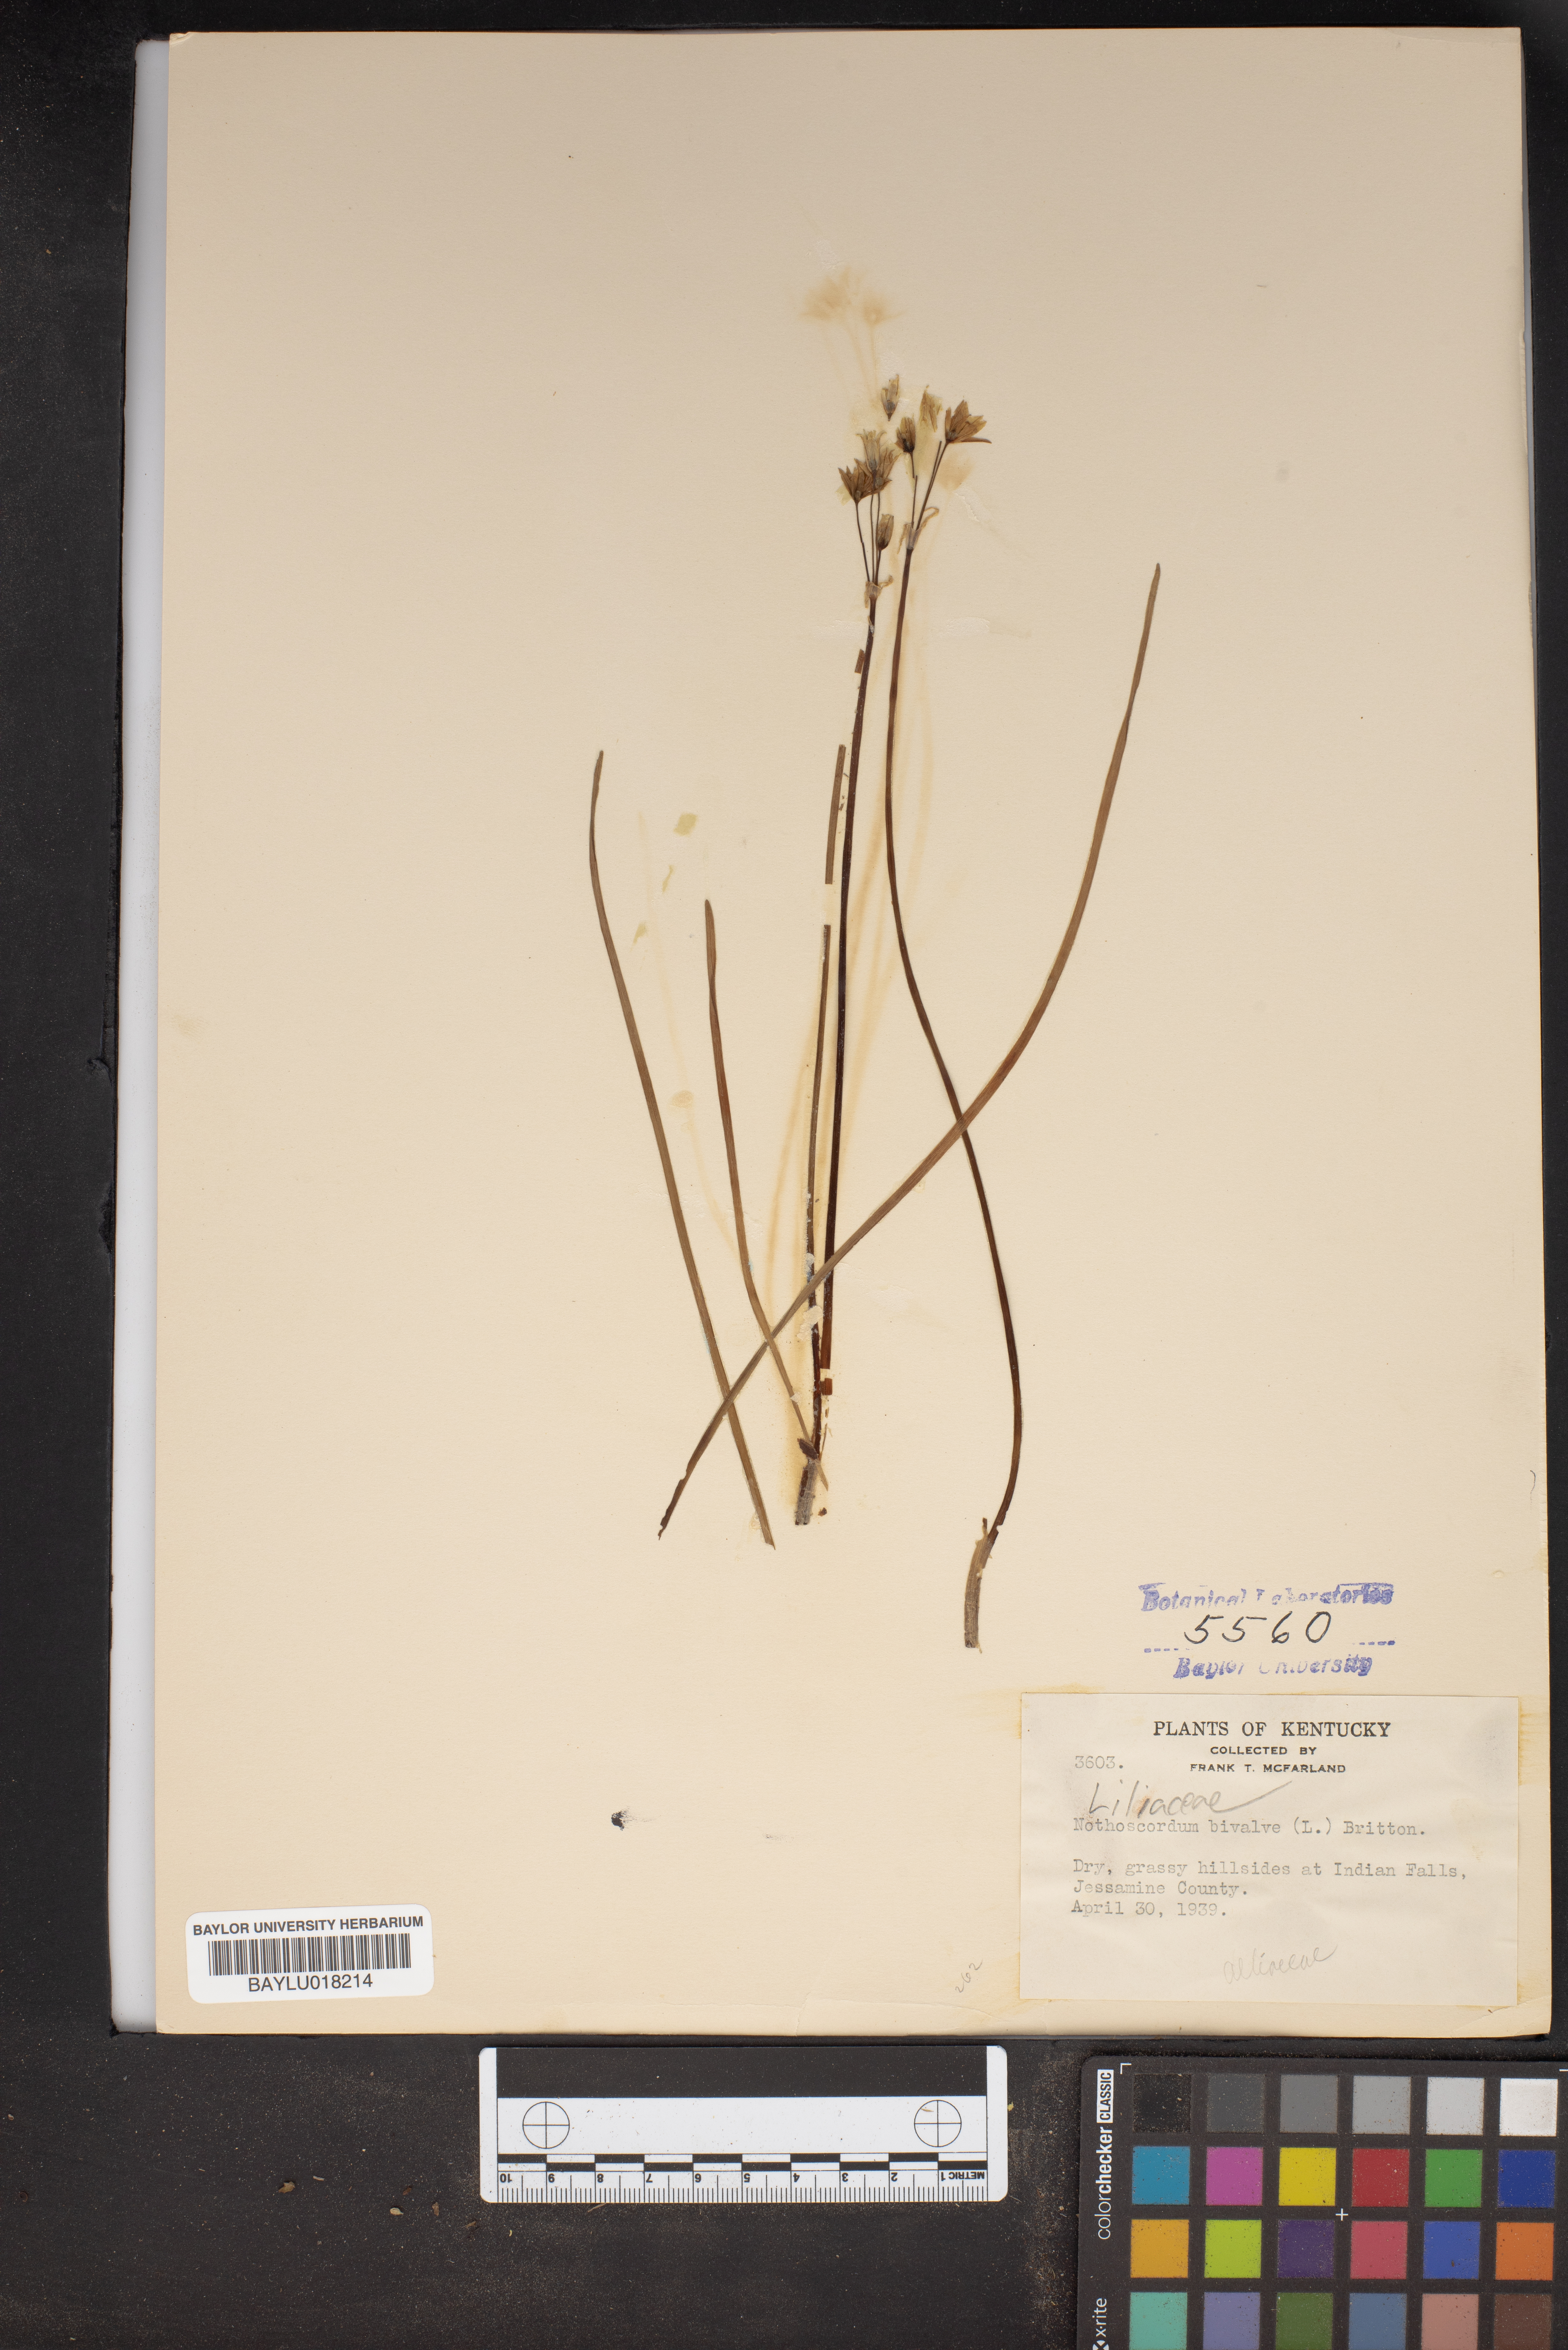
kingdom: Plantae
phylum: Tracheophyta
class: Liliopsida
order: Asparagales
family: Amaryllidaceae
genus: Nothoscordum
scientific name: Nothoscordum bivalve
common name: Crow-poison
